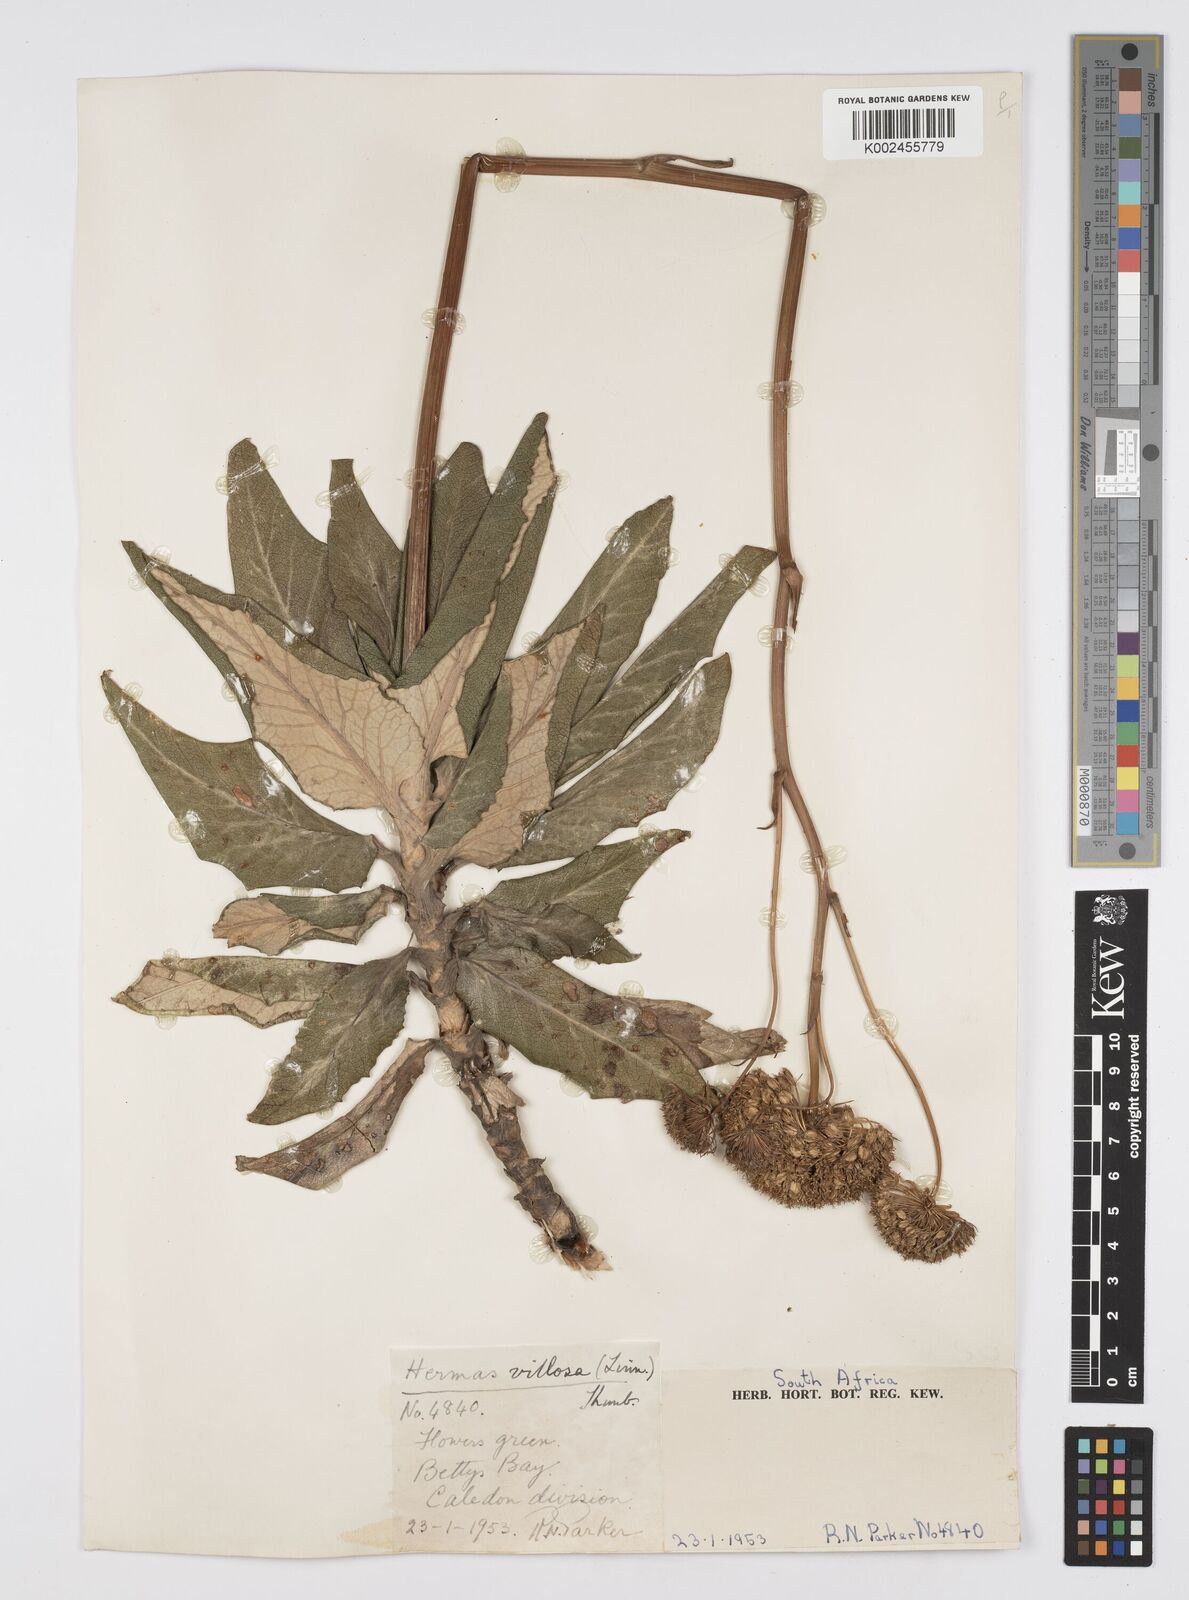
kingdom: Plantae
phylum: Tracheophyta
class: Magnoliopsida
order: Apiales
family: Apiaceae
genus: Hermas
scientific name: Hermas villosa
